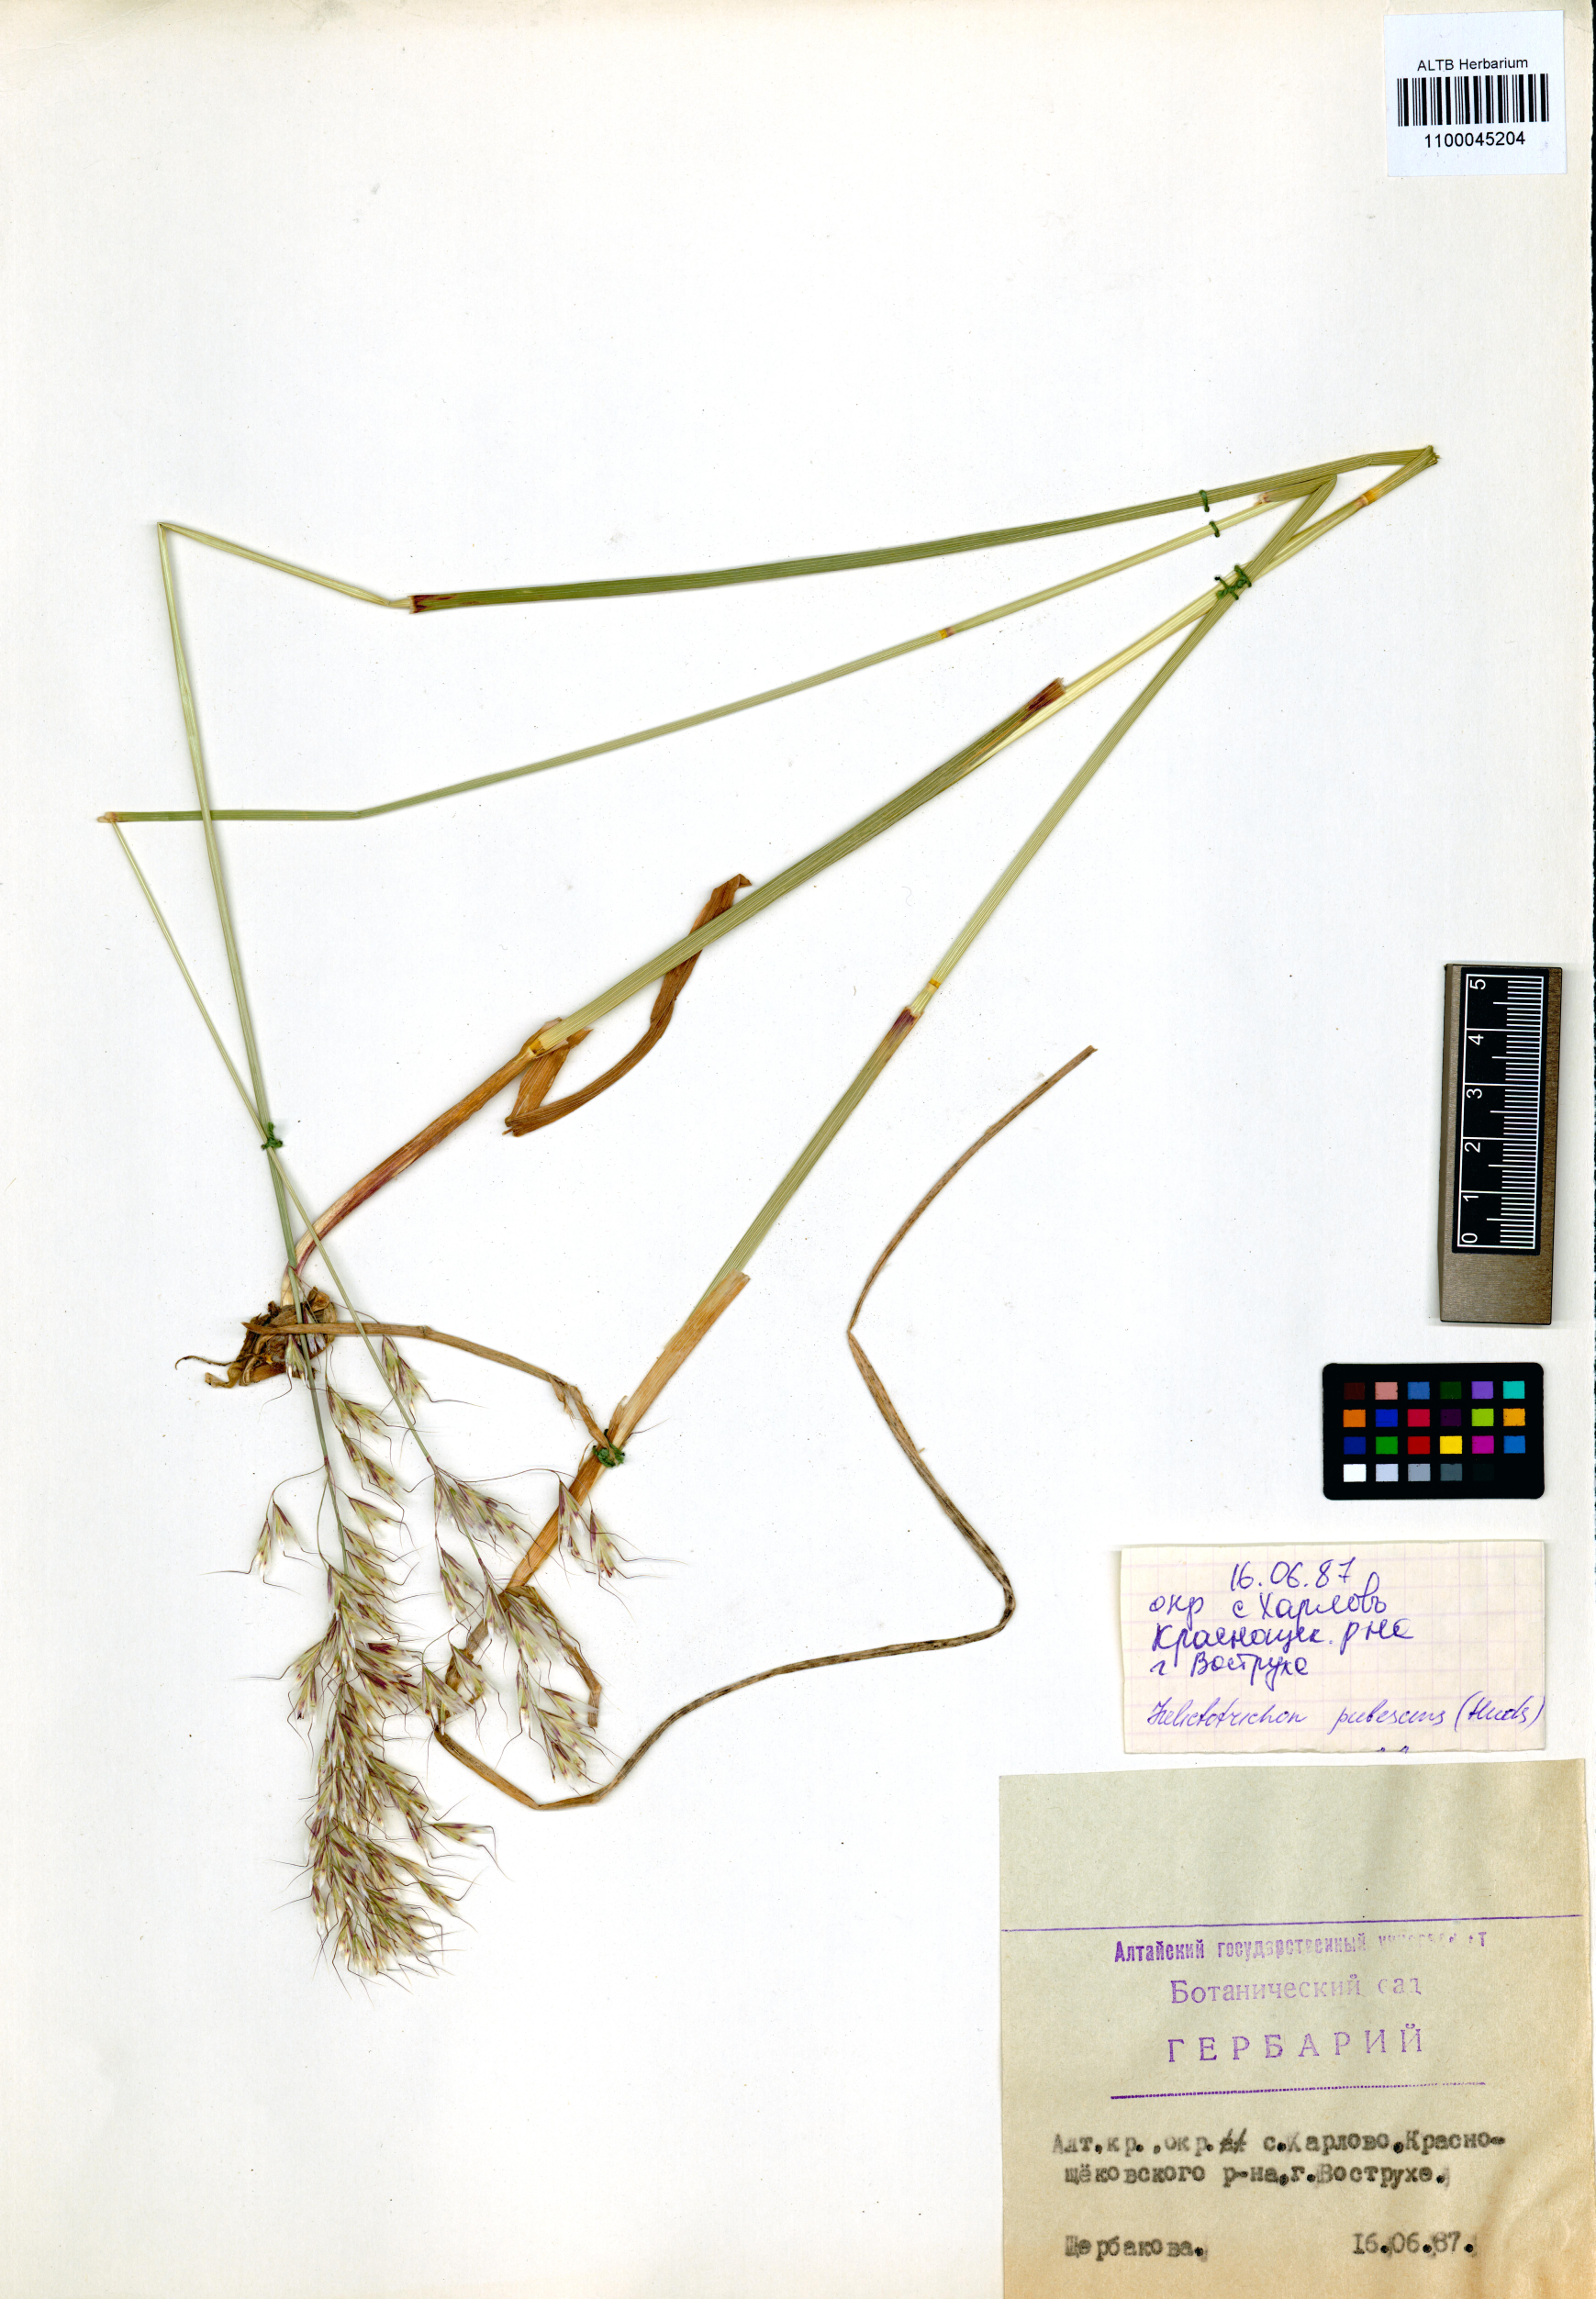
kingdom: Plantae
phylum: Tracheophyta
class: Liliopsida
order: Poales
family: Poaceae
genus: Avenula
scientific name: Avenula pubescens
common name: Downy alpine oatgrass
